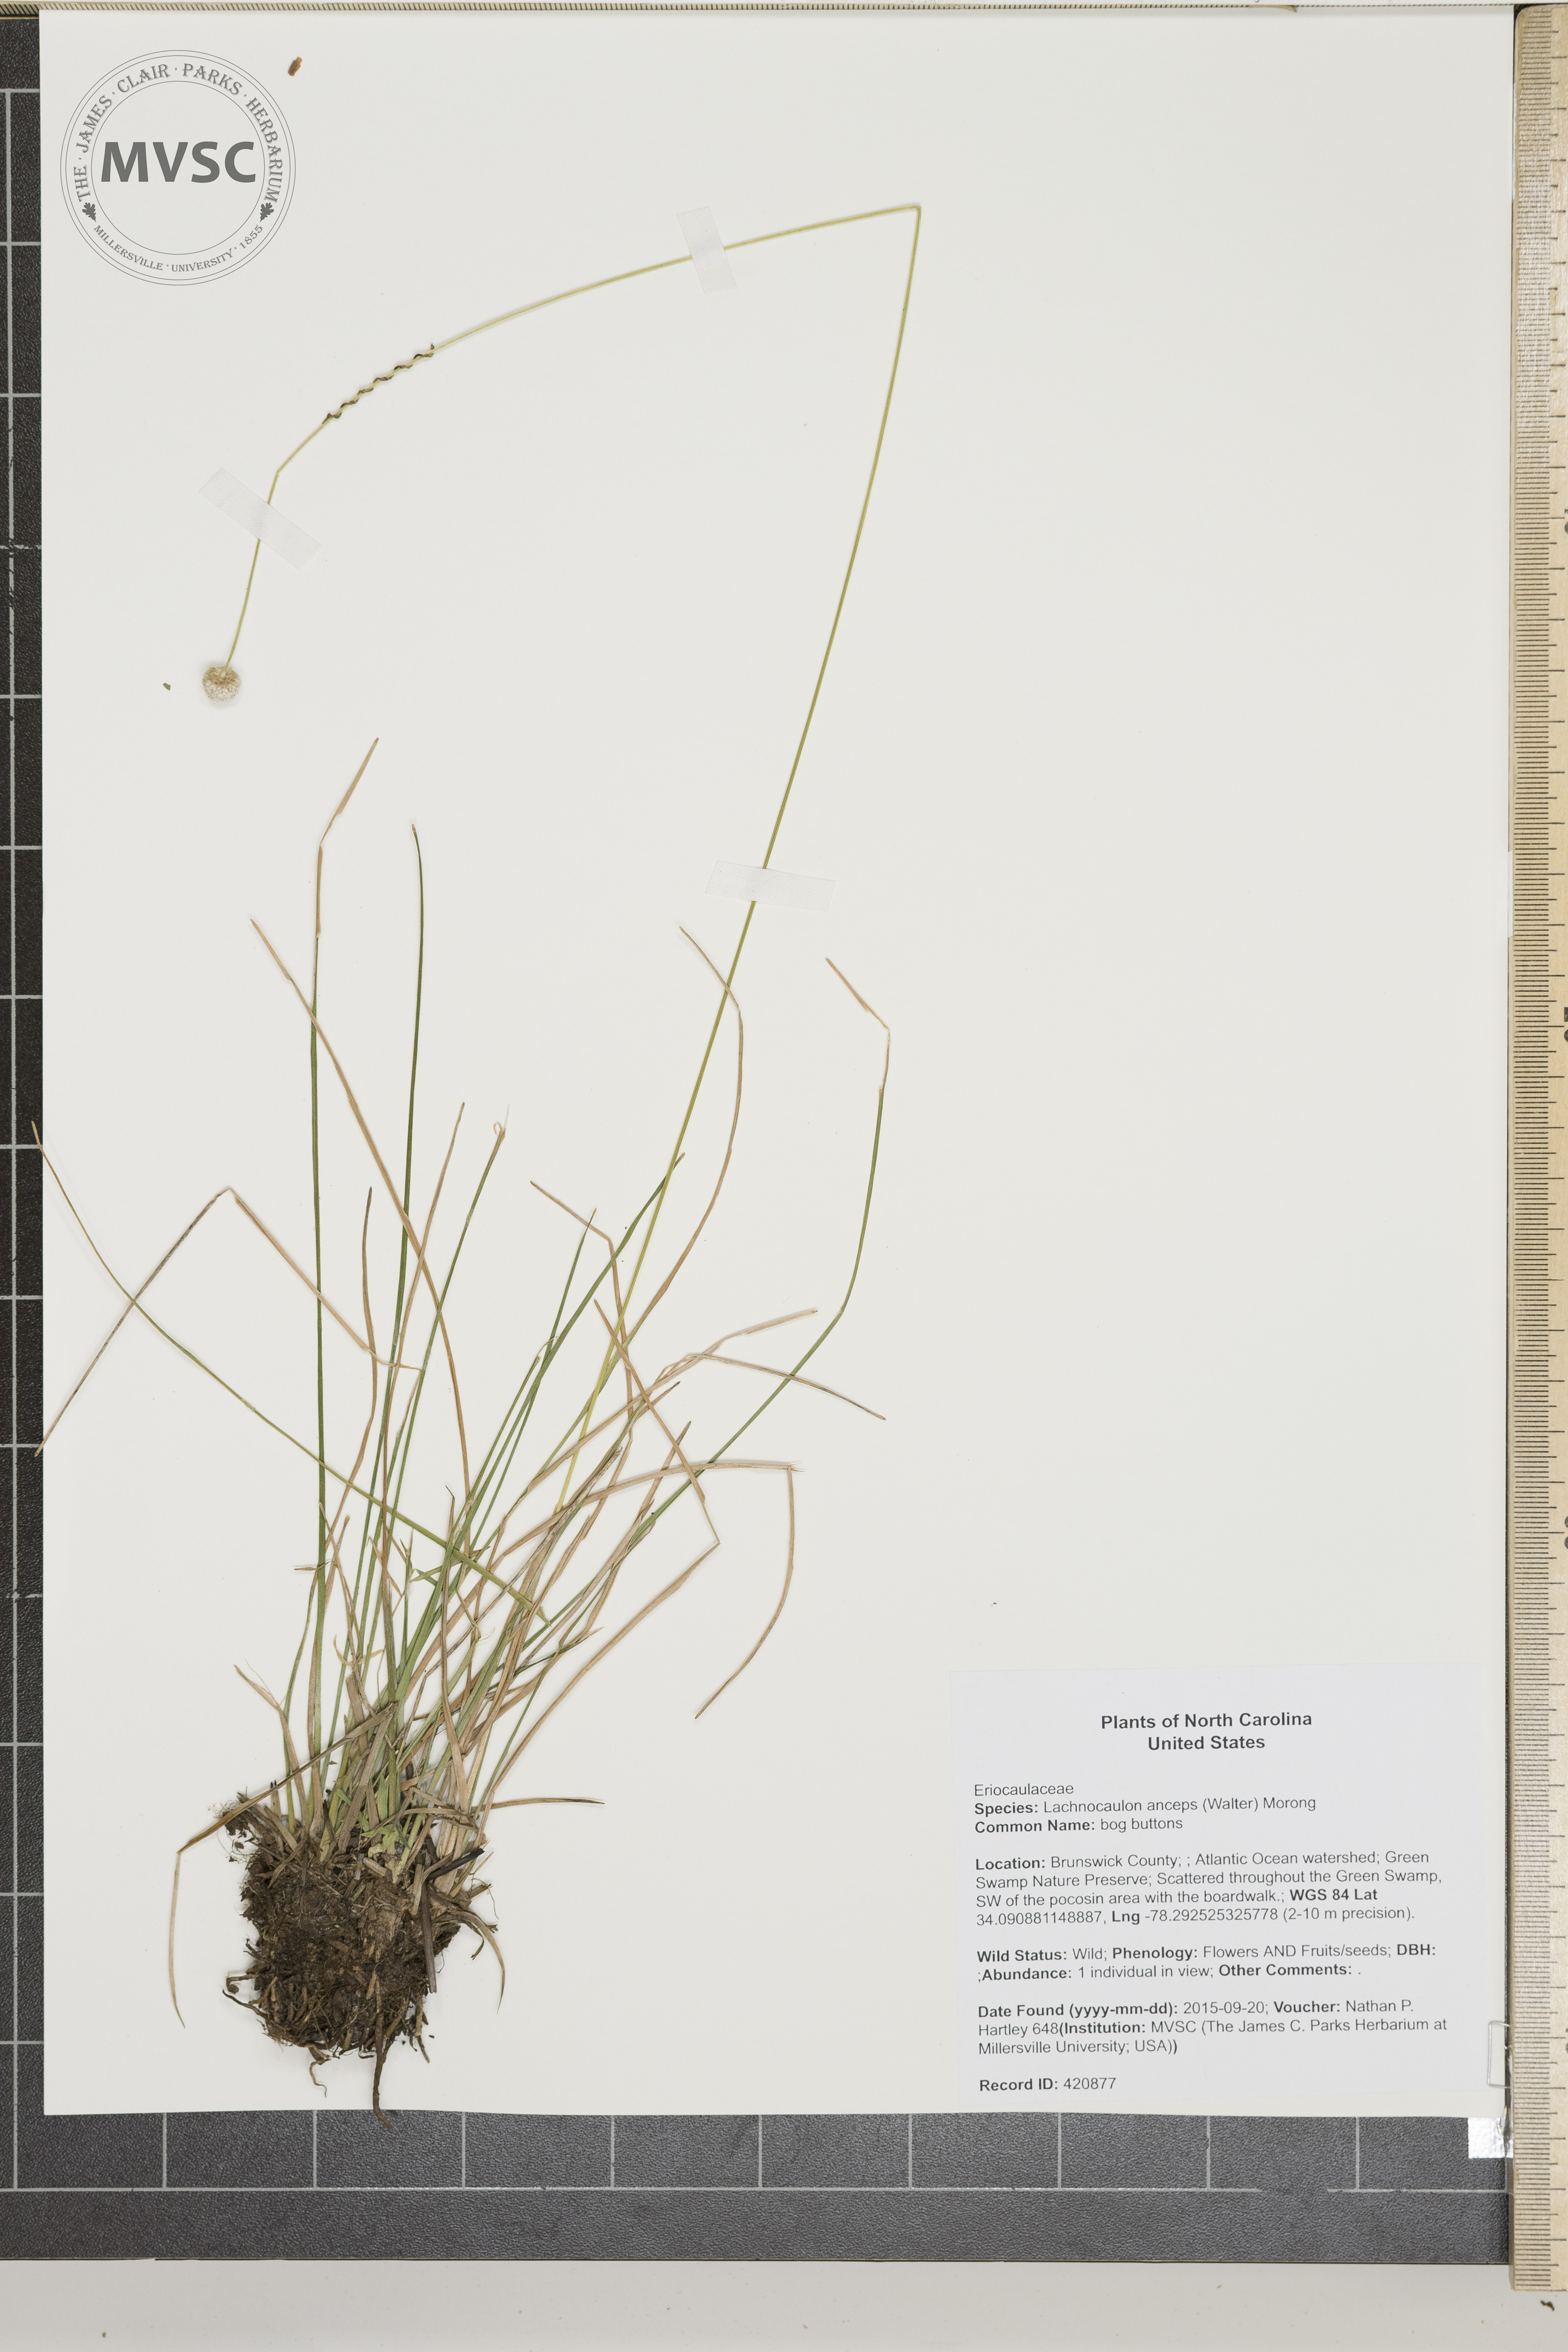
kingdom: Plantae
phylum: Tracheophyta
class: Liliopsida
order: Poales
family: Eriocaulaceae
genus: Paepalanthus
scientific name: Paepalanthus anceps
